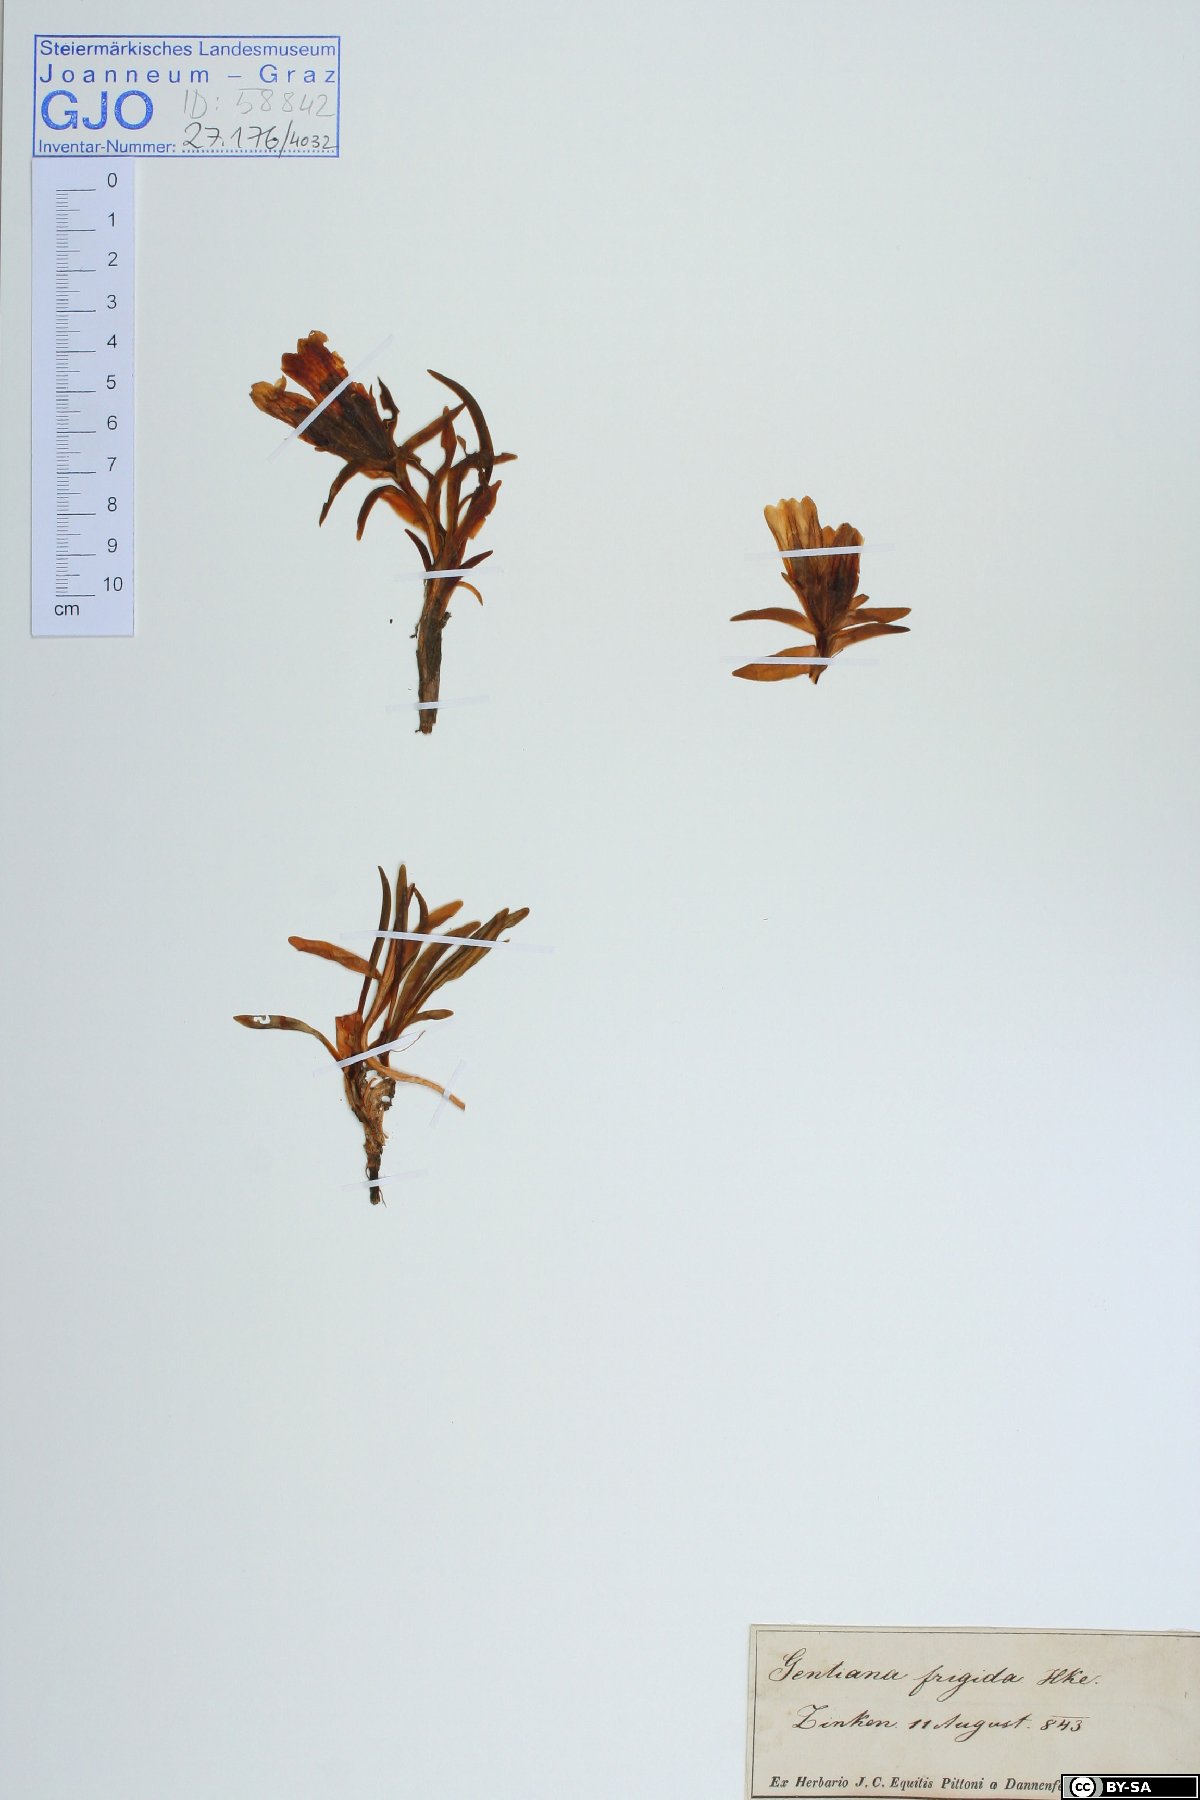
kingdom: Plantae
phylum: Tracheophyta
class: Magnoliopsida
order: Gentianales
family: Gentianaceae
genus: Gentiana
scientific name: Gentiana frigida
